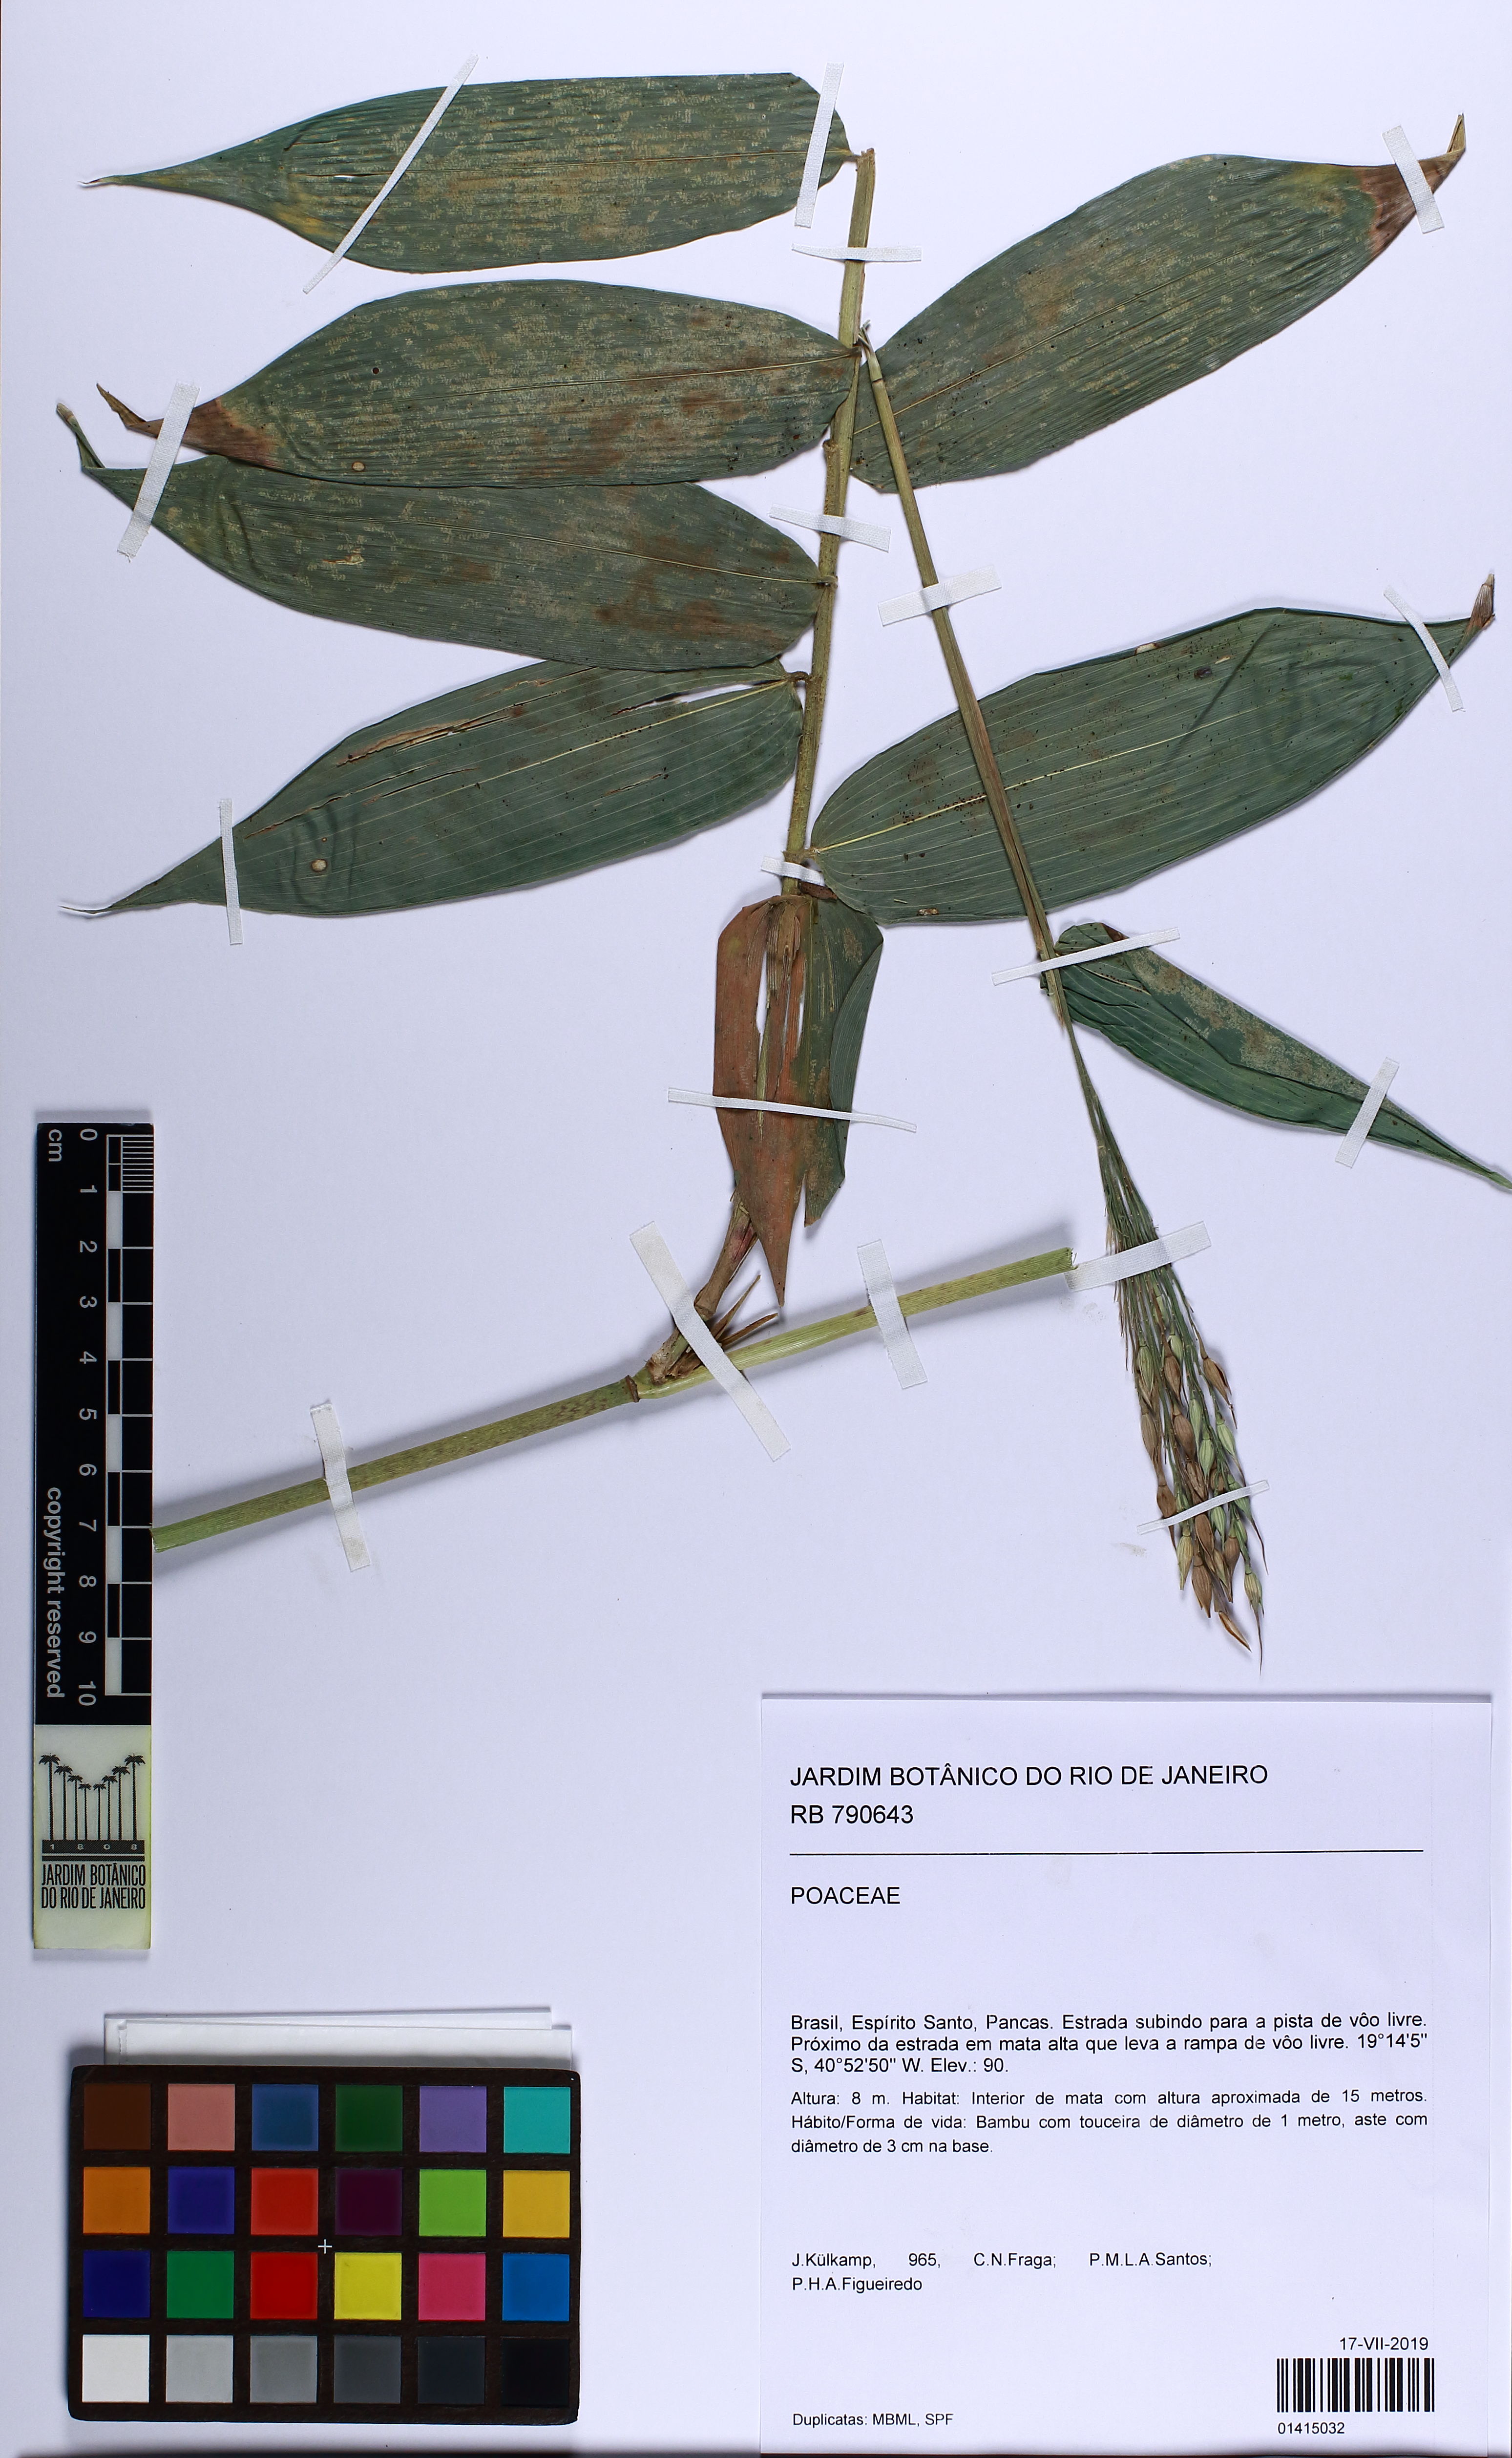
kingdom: Plantae
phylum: Tracheophyta
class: Liliopsida
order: Poales
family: Poaceae
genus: Olyra
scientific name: Olyra latifolia
